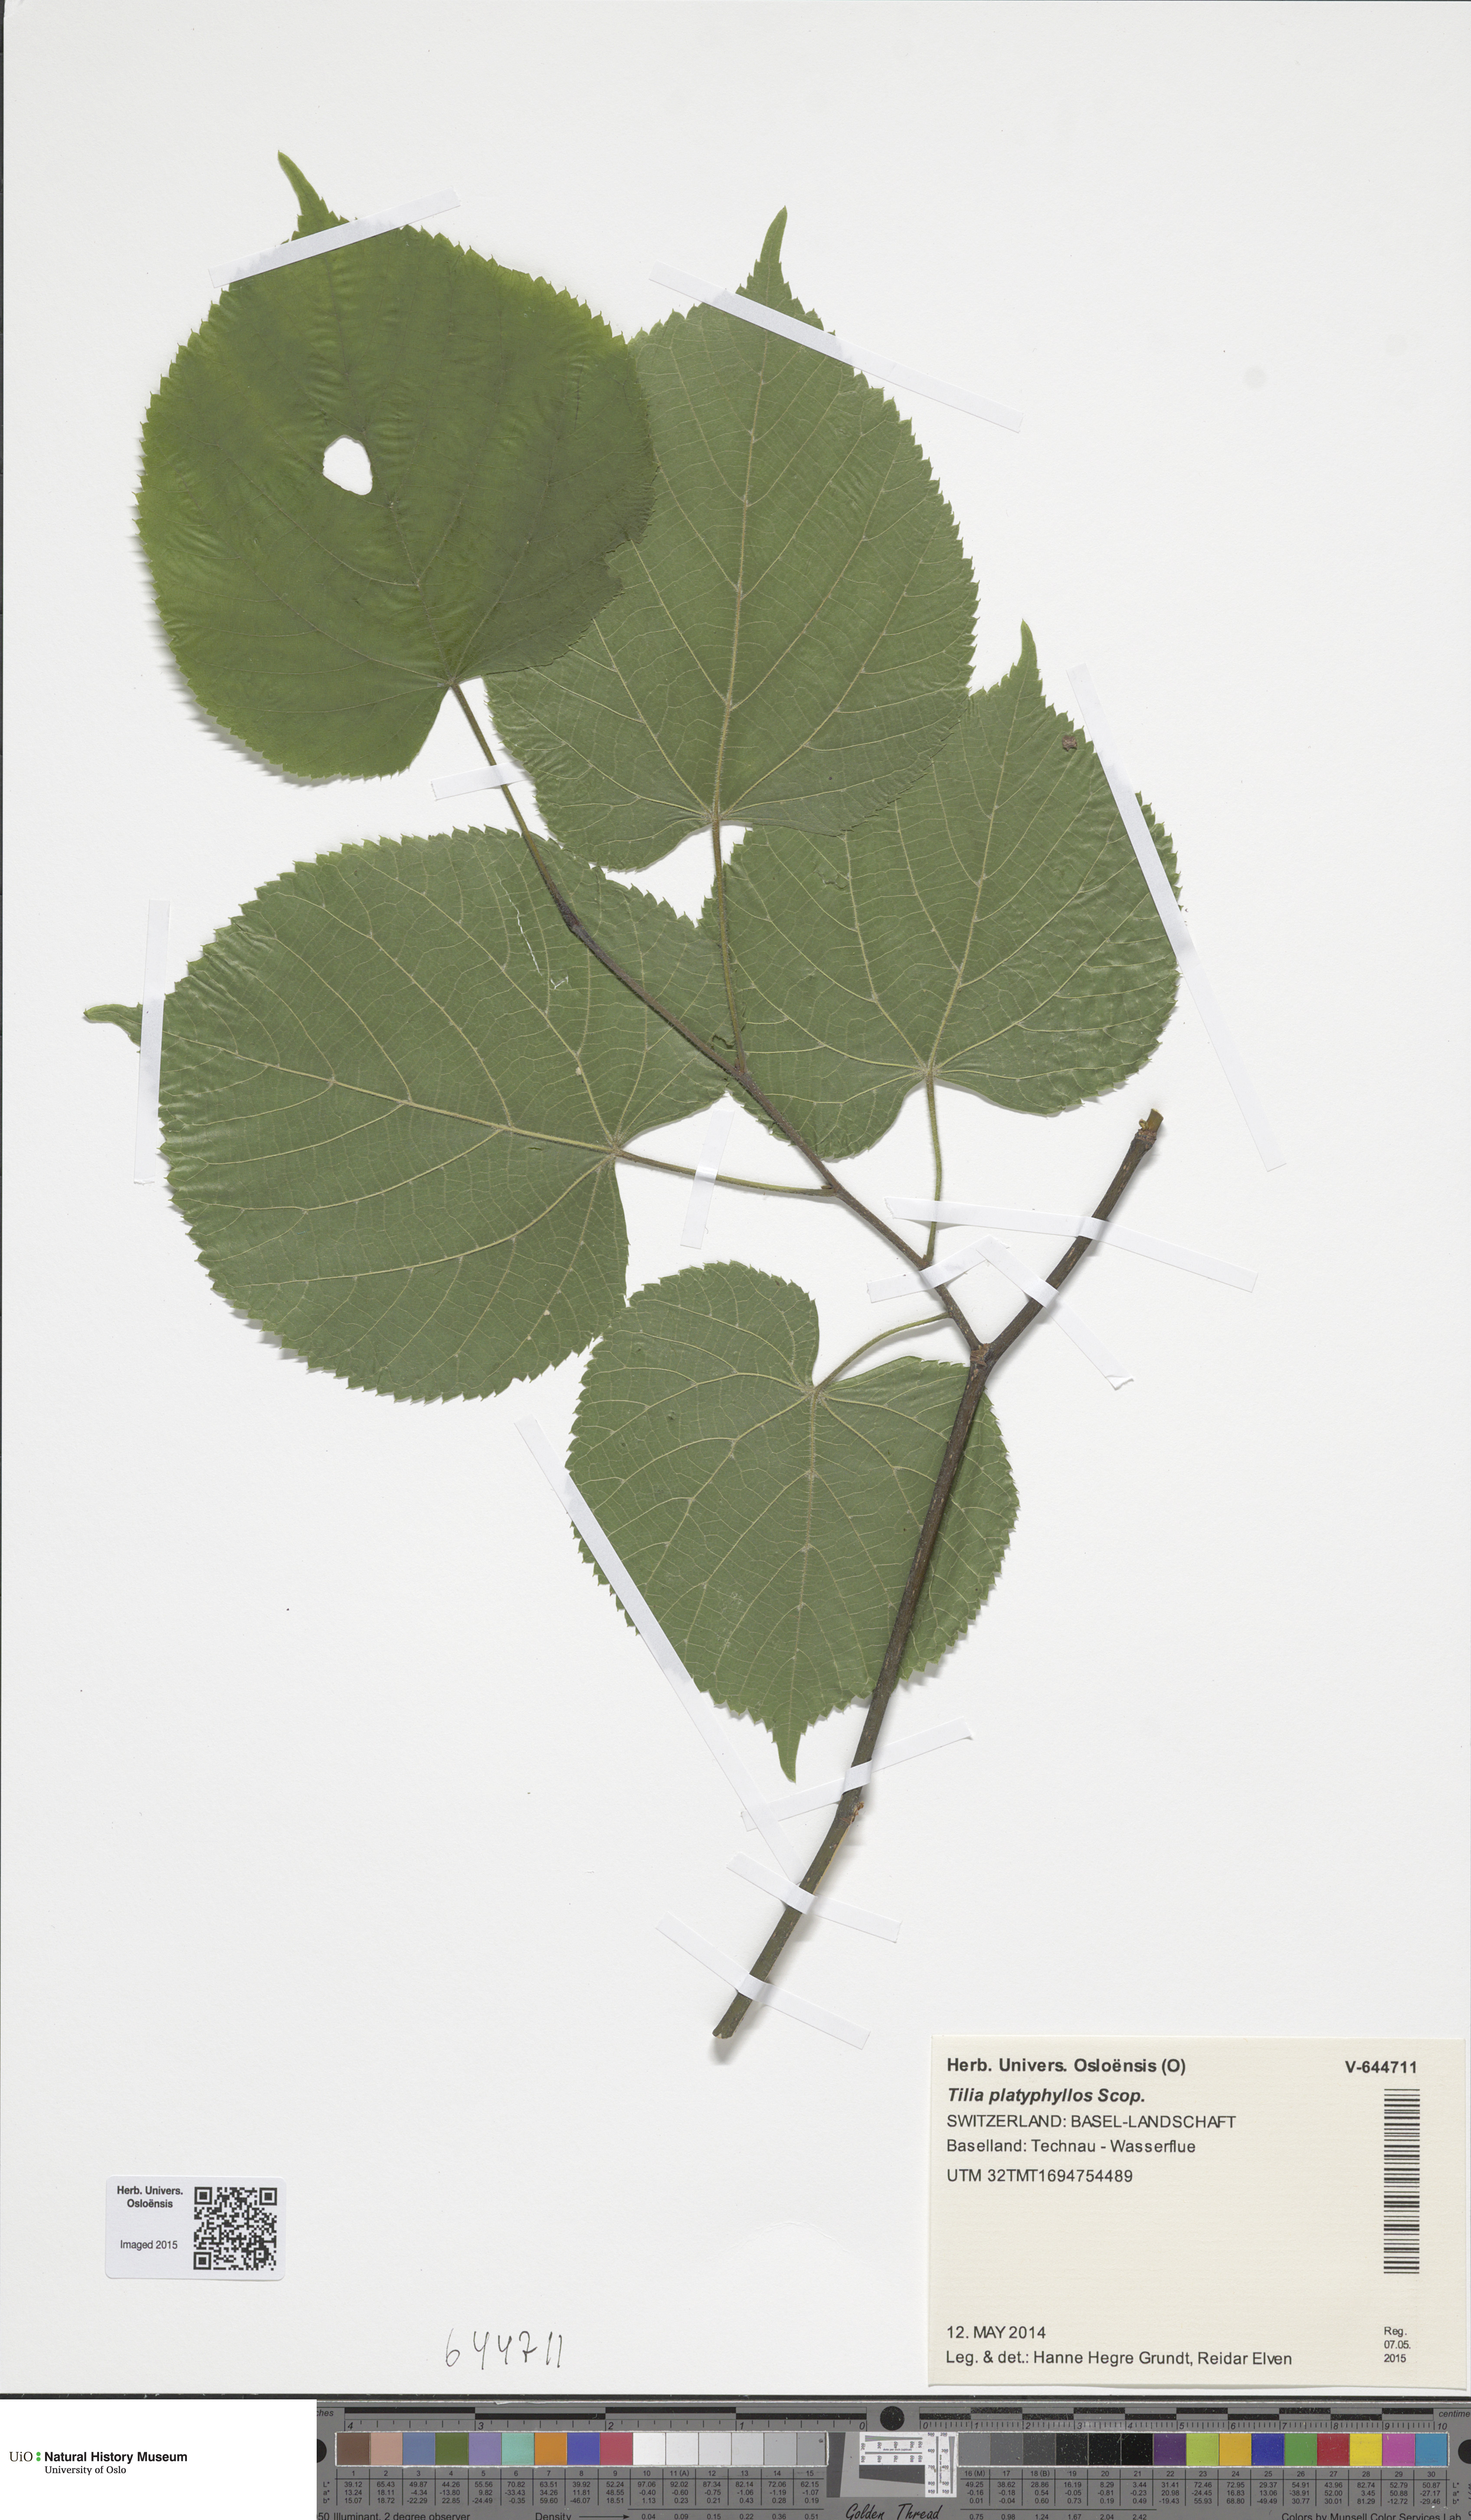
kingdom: Plantae
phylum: Tracheophyta
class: Magnoliopsida
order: Malvales
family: Malvaceae
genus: Tilia
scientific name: Tilia platyphyllos
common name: Large-leaved lime
